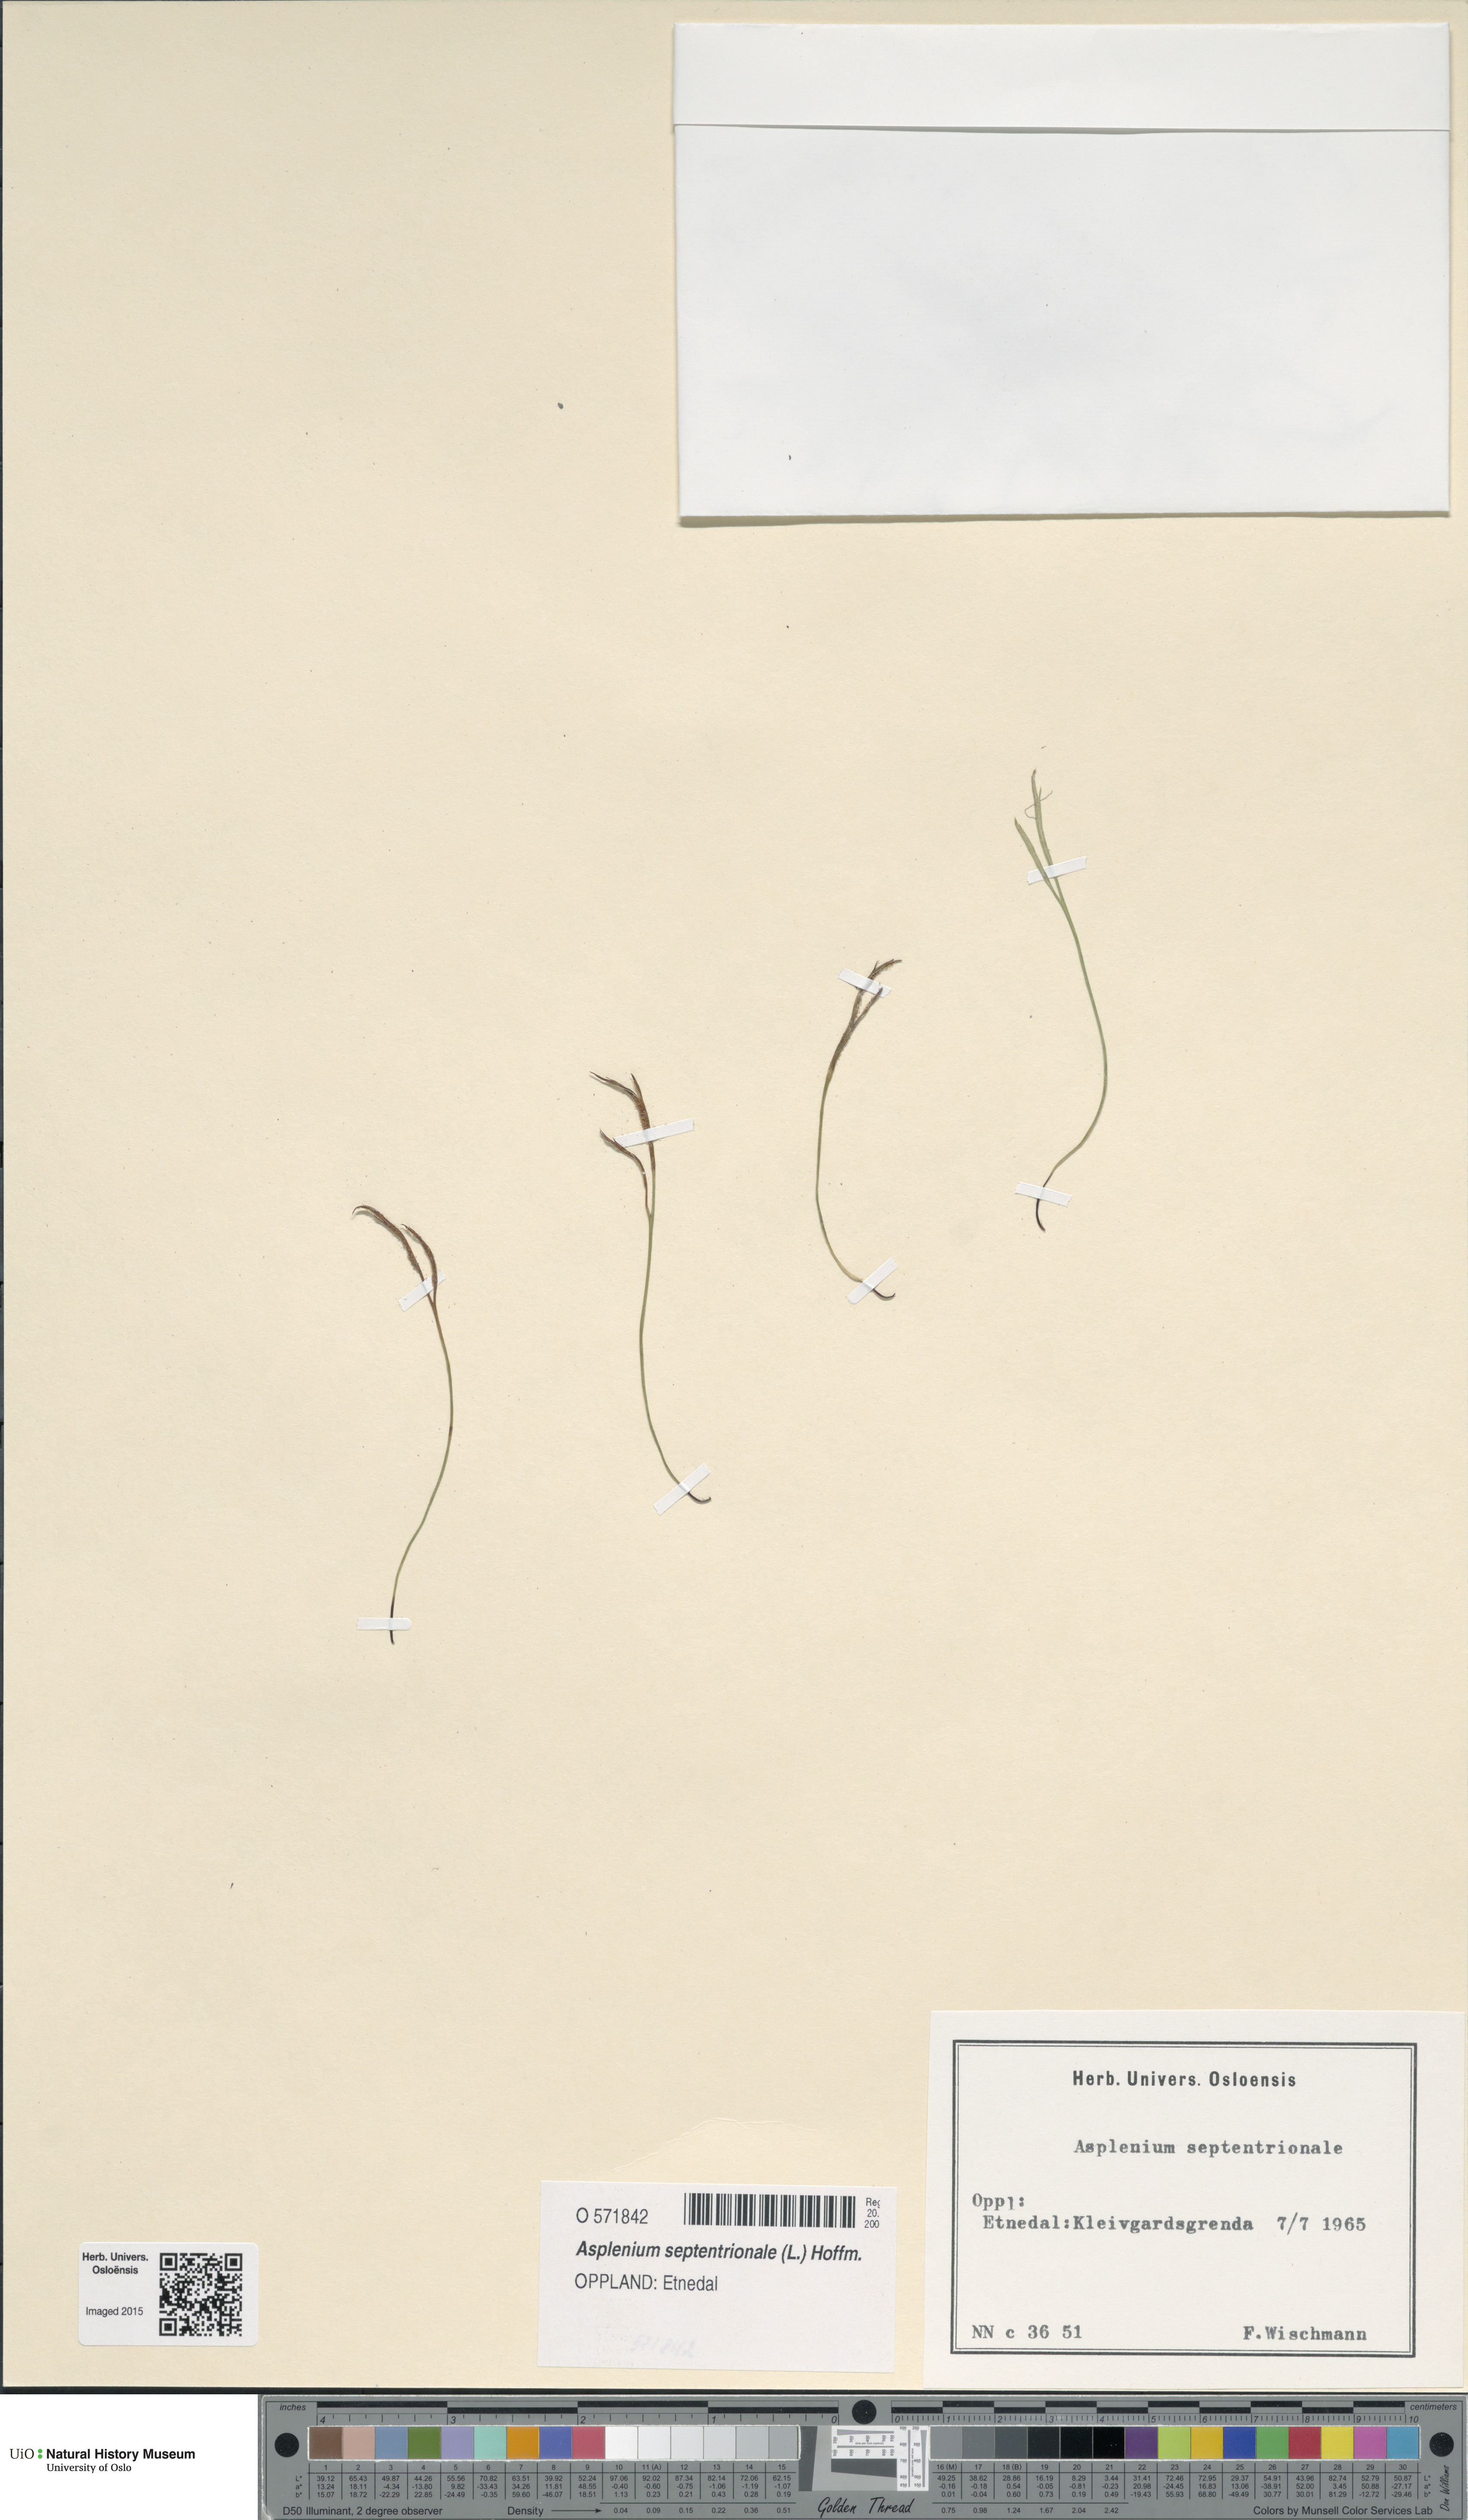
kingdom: Plantae
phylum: Tracheophyta
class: Polypodiopsida
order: Polypodiales
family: Aspleniaceae
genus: Asplenium
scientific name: Asplenium septentrionale
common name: Forked spleenwort
